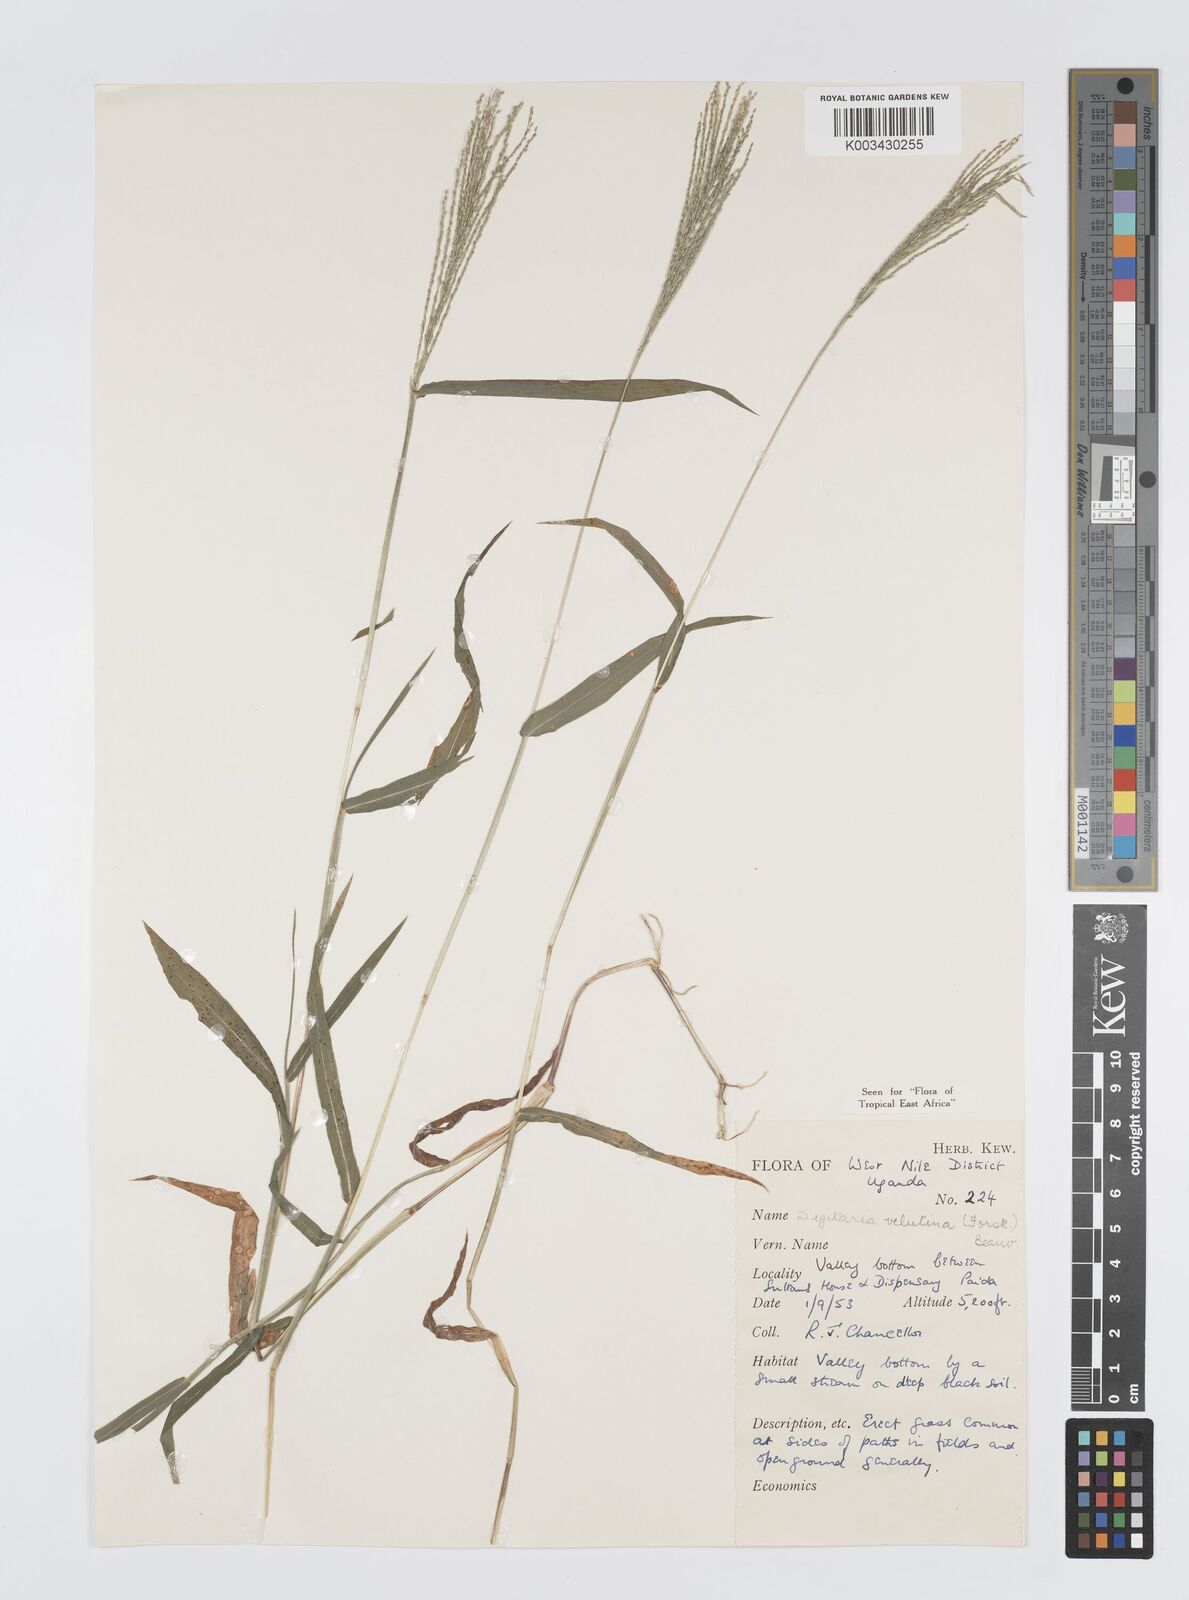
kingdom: Plantae
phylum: Tracheophyta
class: Liliopsida
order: Poales
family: Poaceae
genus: Digitaria
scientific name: Digitaria velutina
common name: Long-plume finger grass
